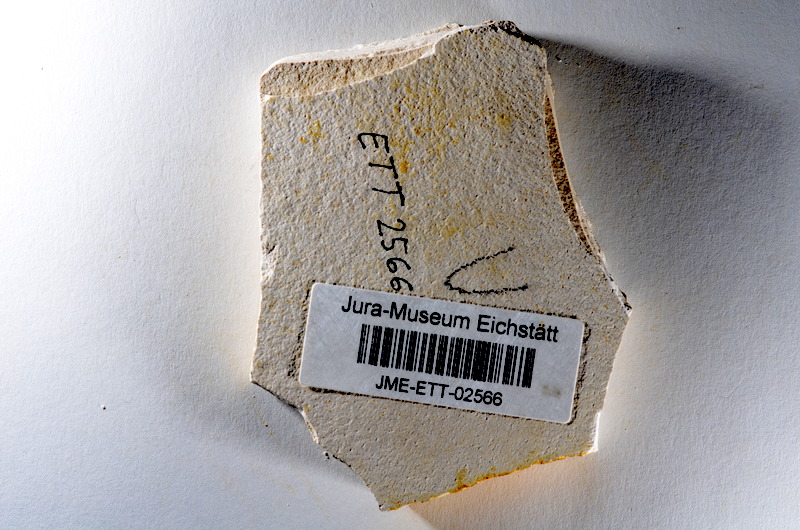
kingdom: Animalia
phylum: Chordata
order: Salmoniformes
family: Orthogonikleithridae
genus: Orthogonikleithrus
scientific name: Orthogonikleithrus hoelli
